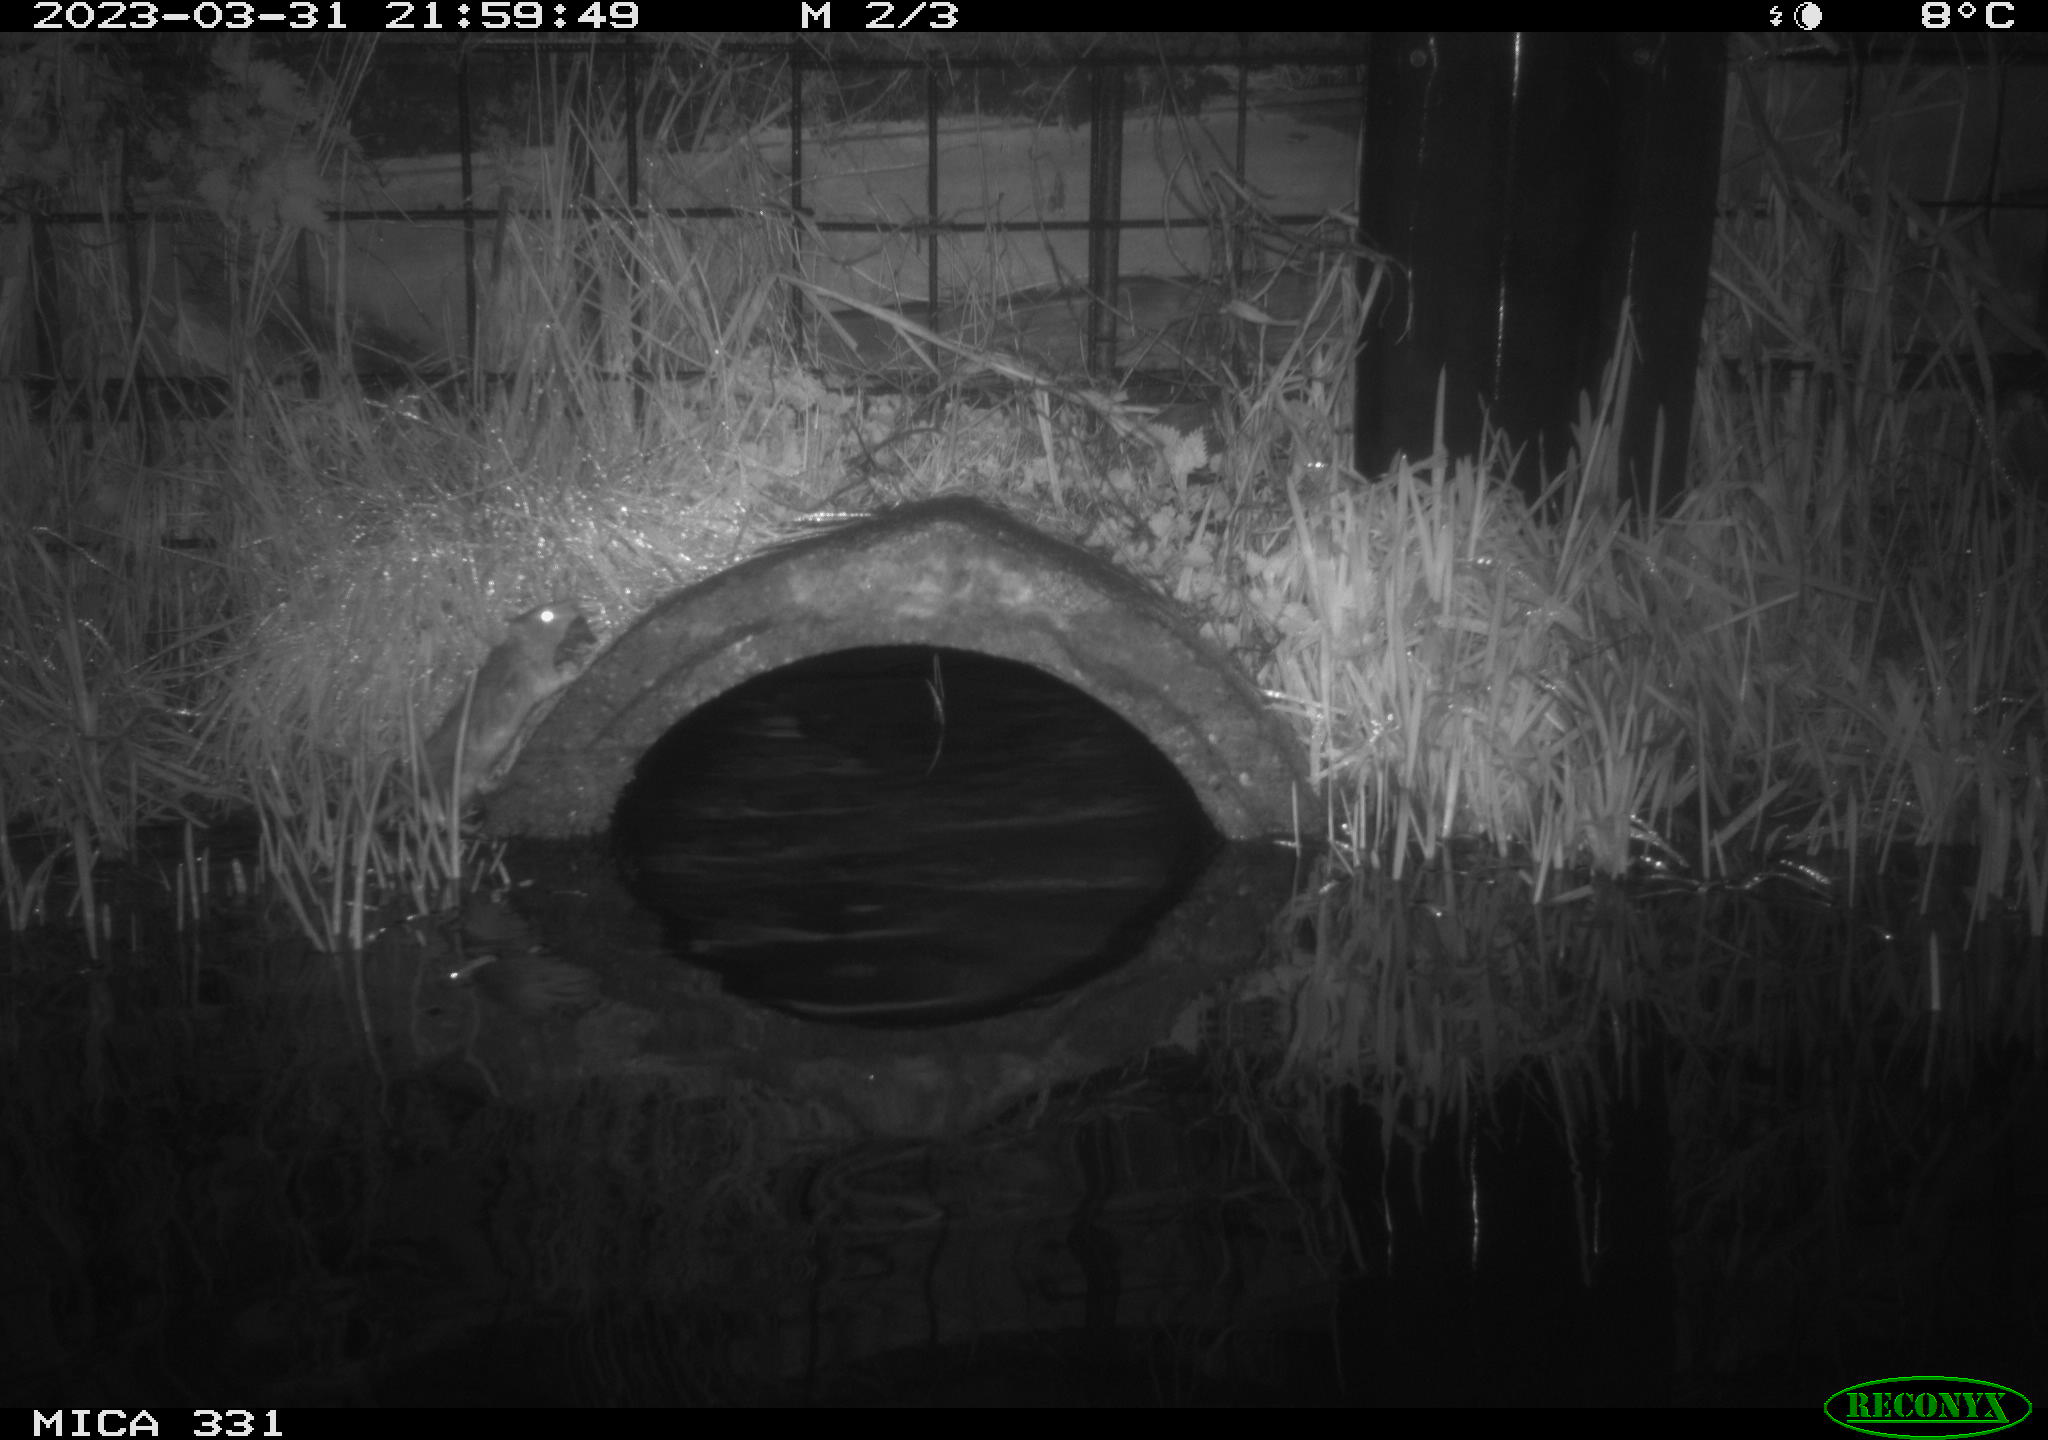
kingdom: Animalia
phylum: Chordata
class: Mammalia
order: Rodentia
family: Muridae
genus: Rattus
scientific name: Rattus norvegicus
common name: Brown rat
